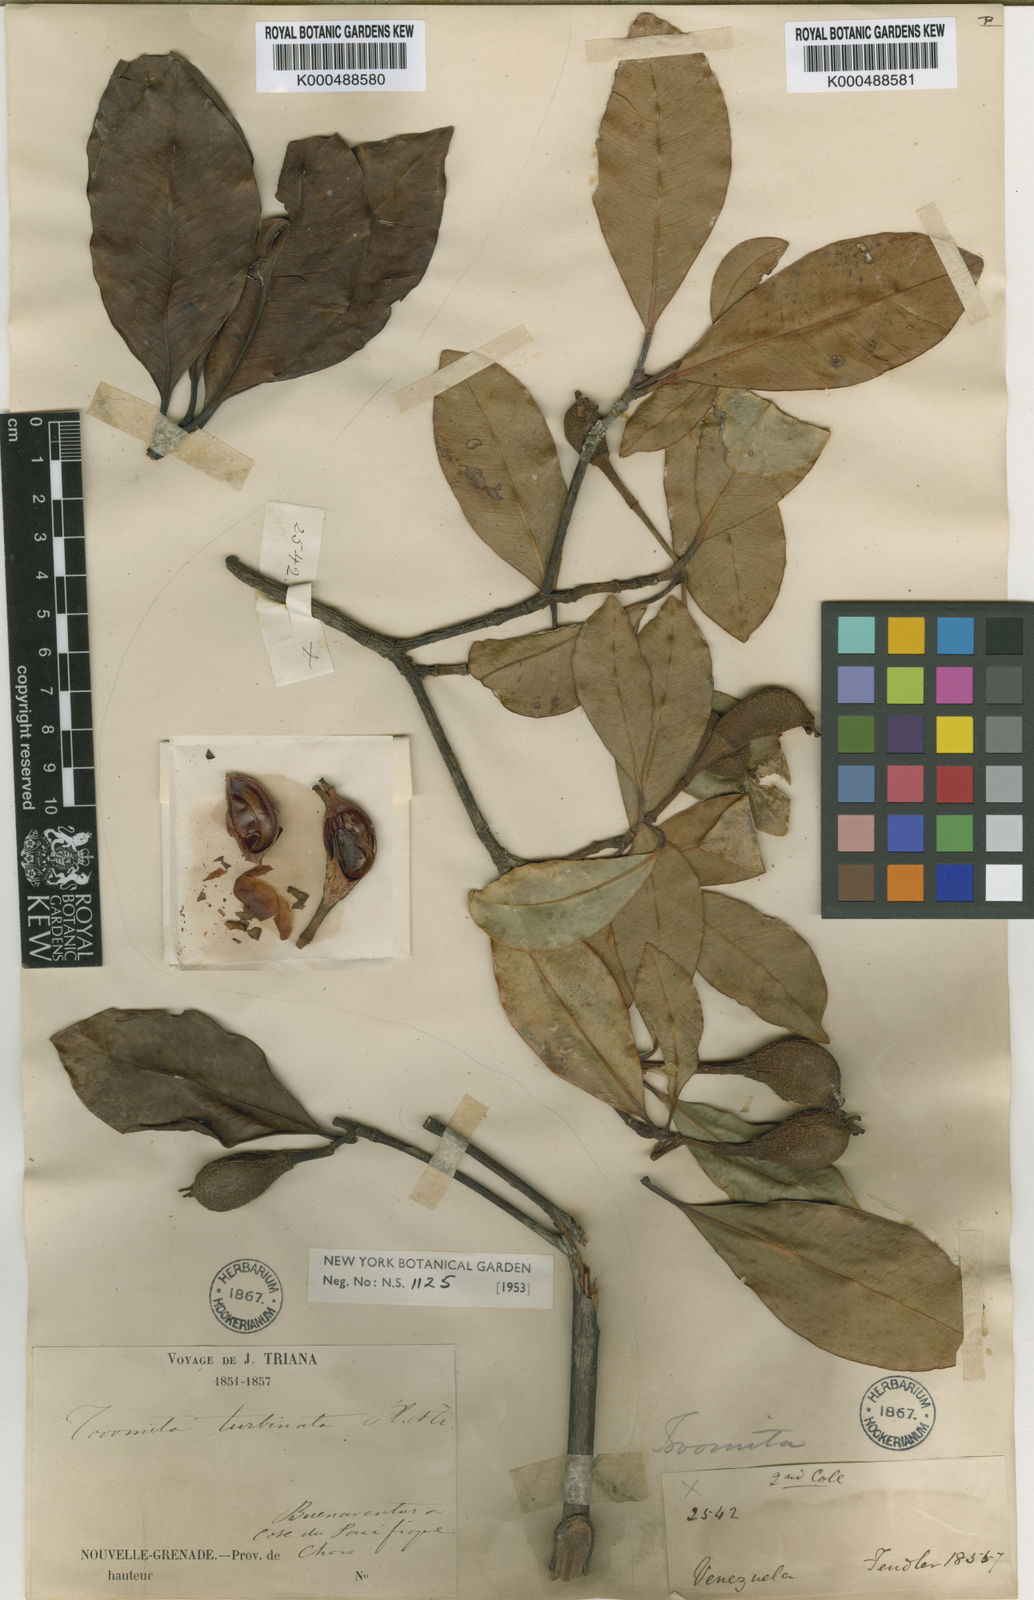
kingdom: Plantae
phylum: Tracheophyta
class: Magnoliopsida
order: Malpighiales
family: Clusiaceae
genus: Tovomita
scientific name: Tovomita turbinata
